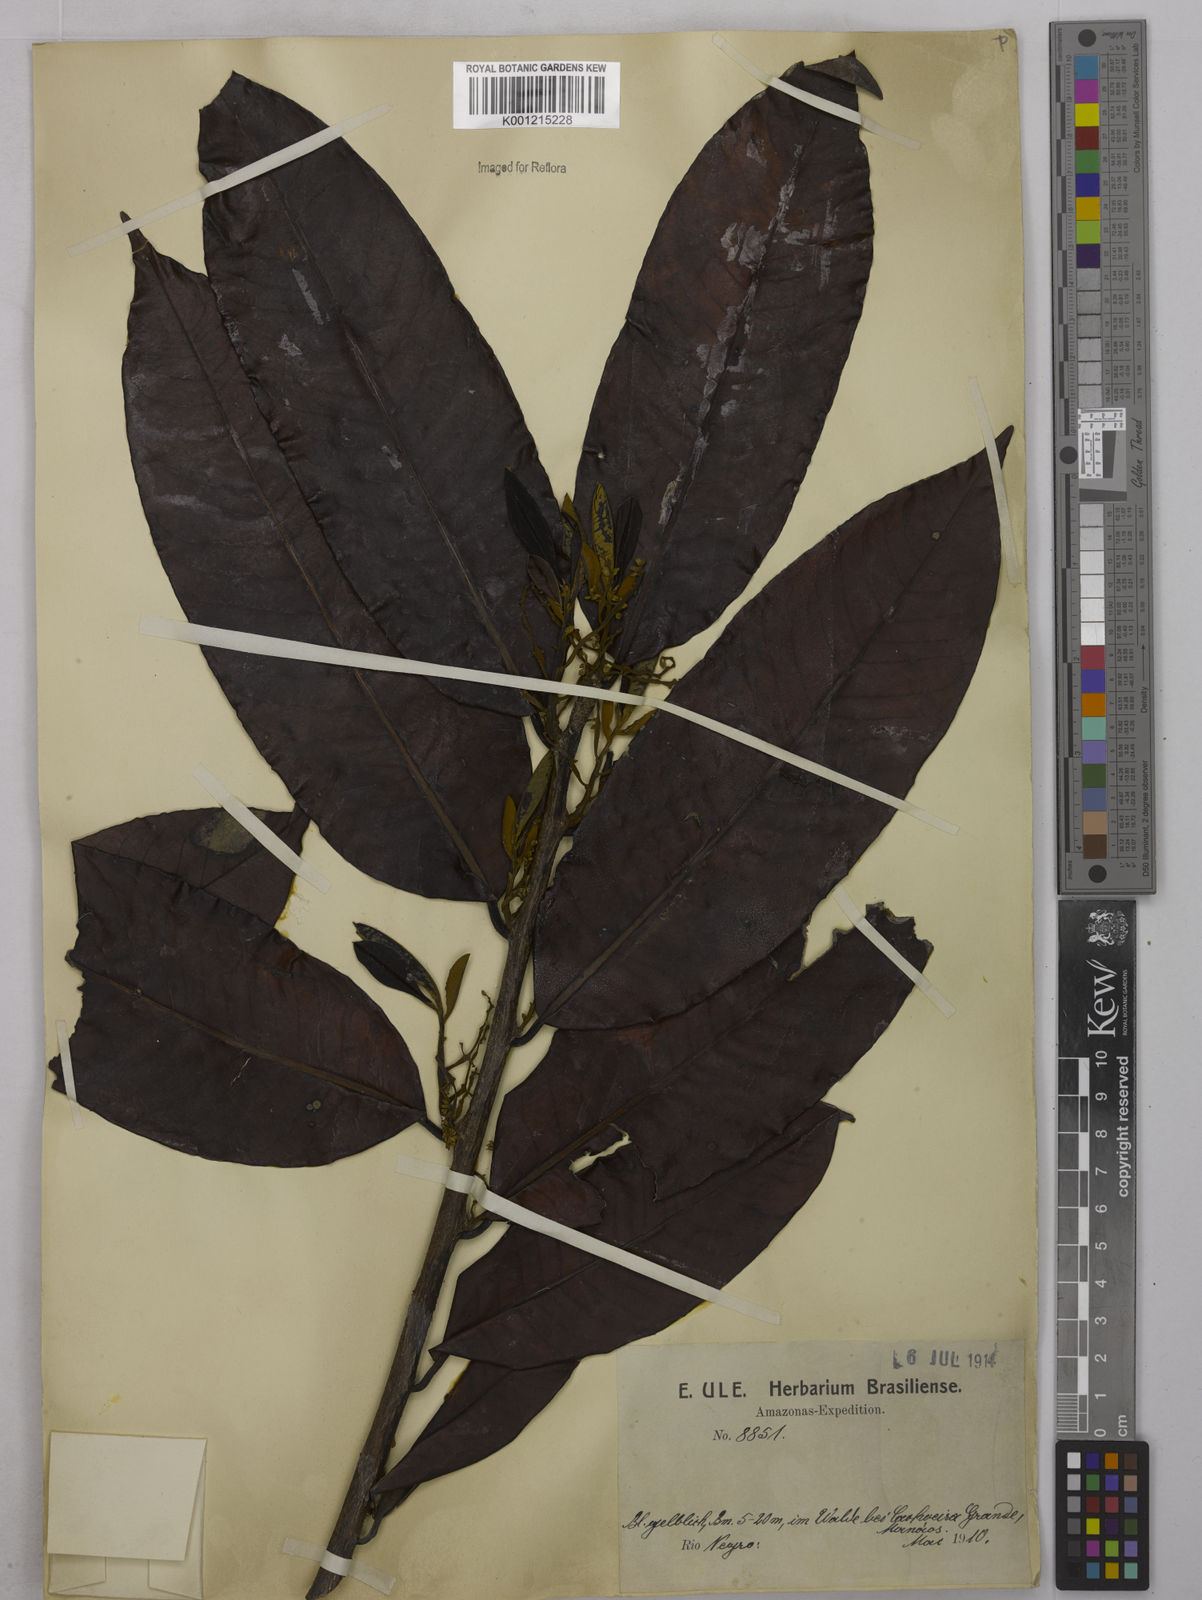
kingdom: Plantae
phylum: Tracheophyta
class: Magnoliopsida
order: Malpighiales
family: Euphorbiaceae
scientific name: Euphorbiaceae
